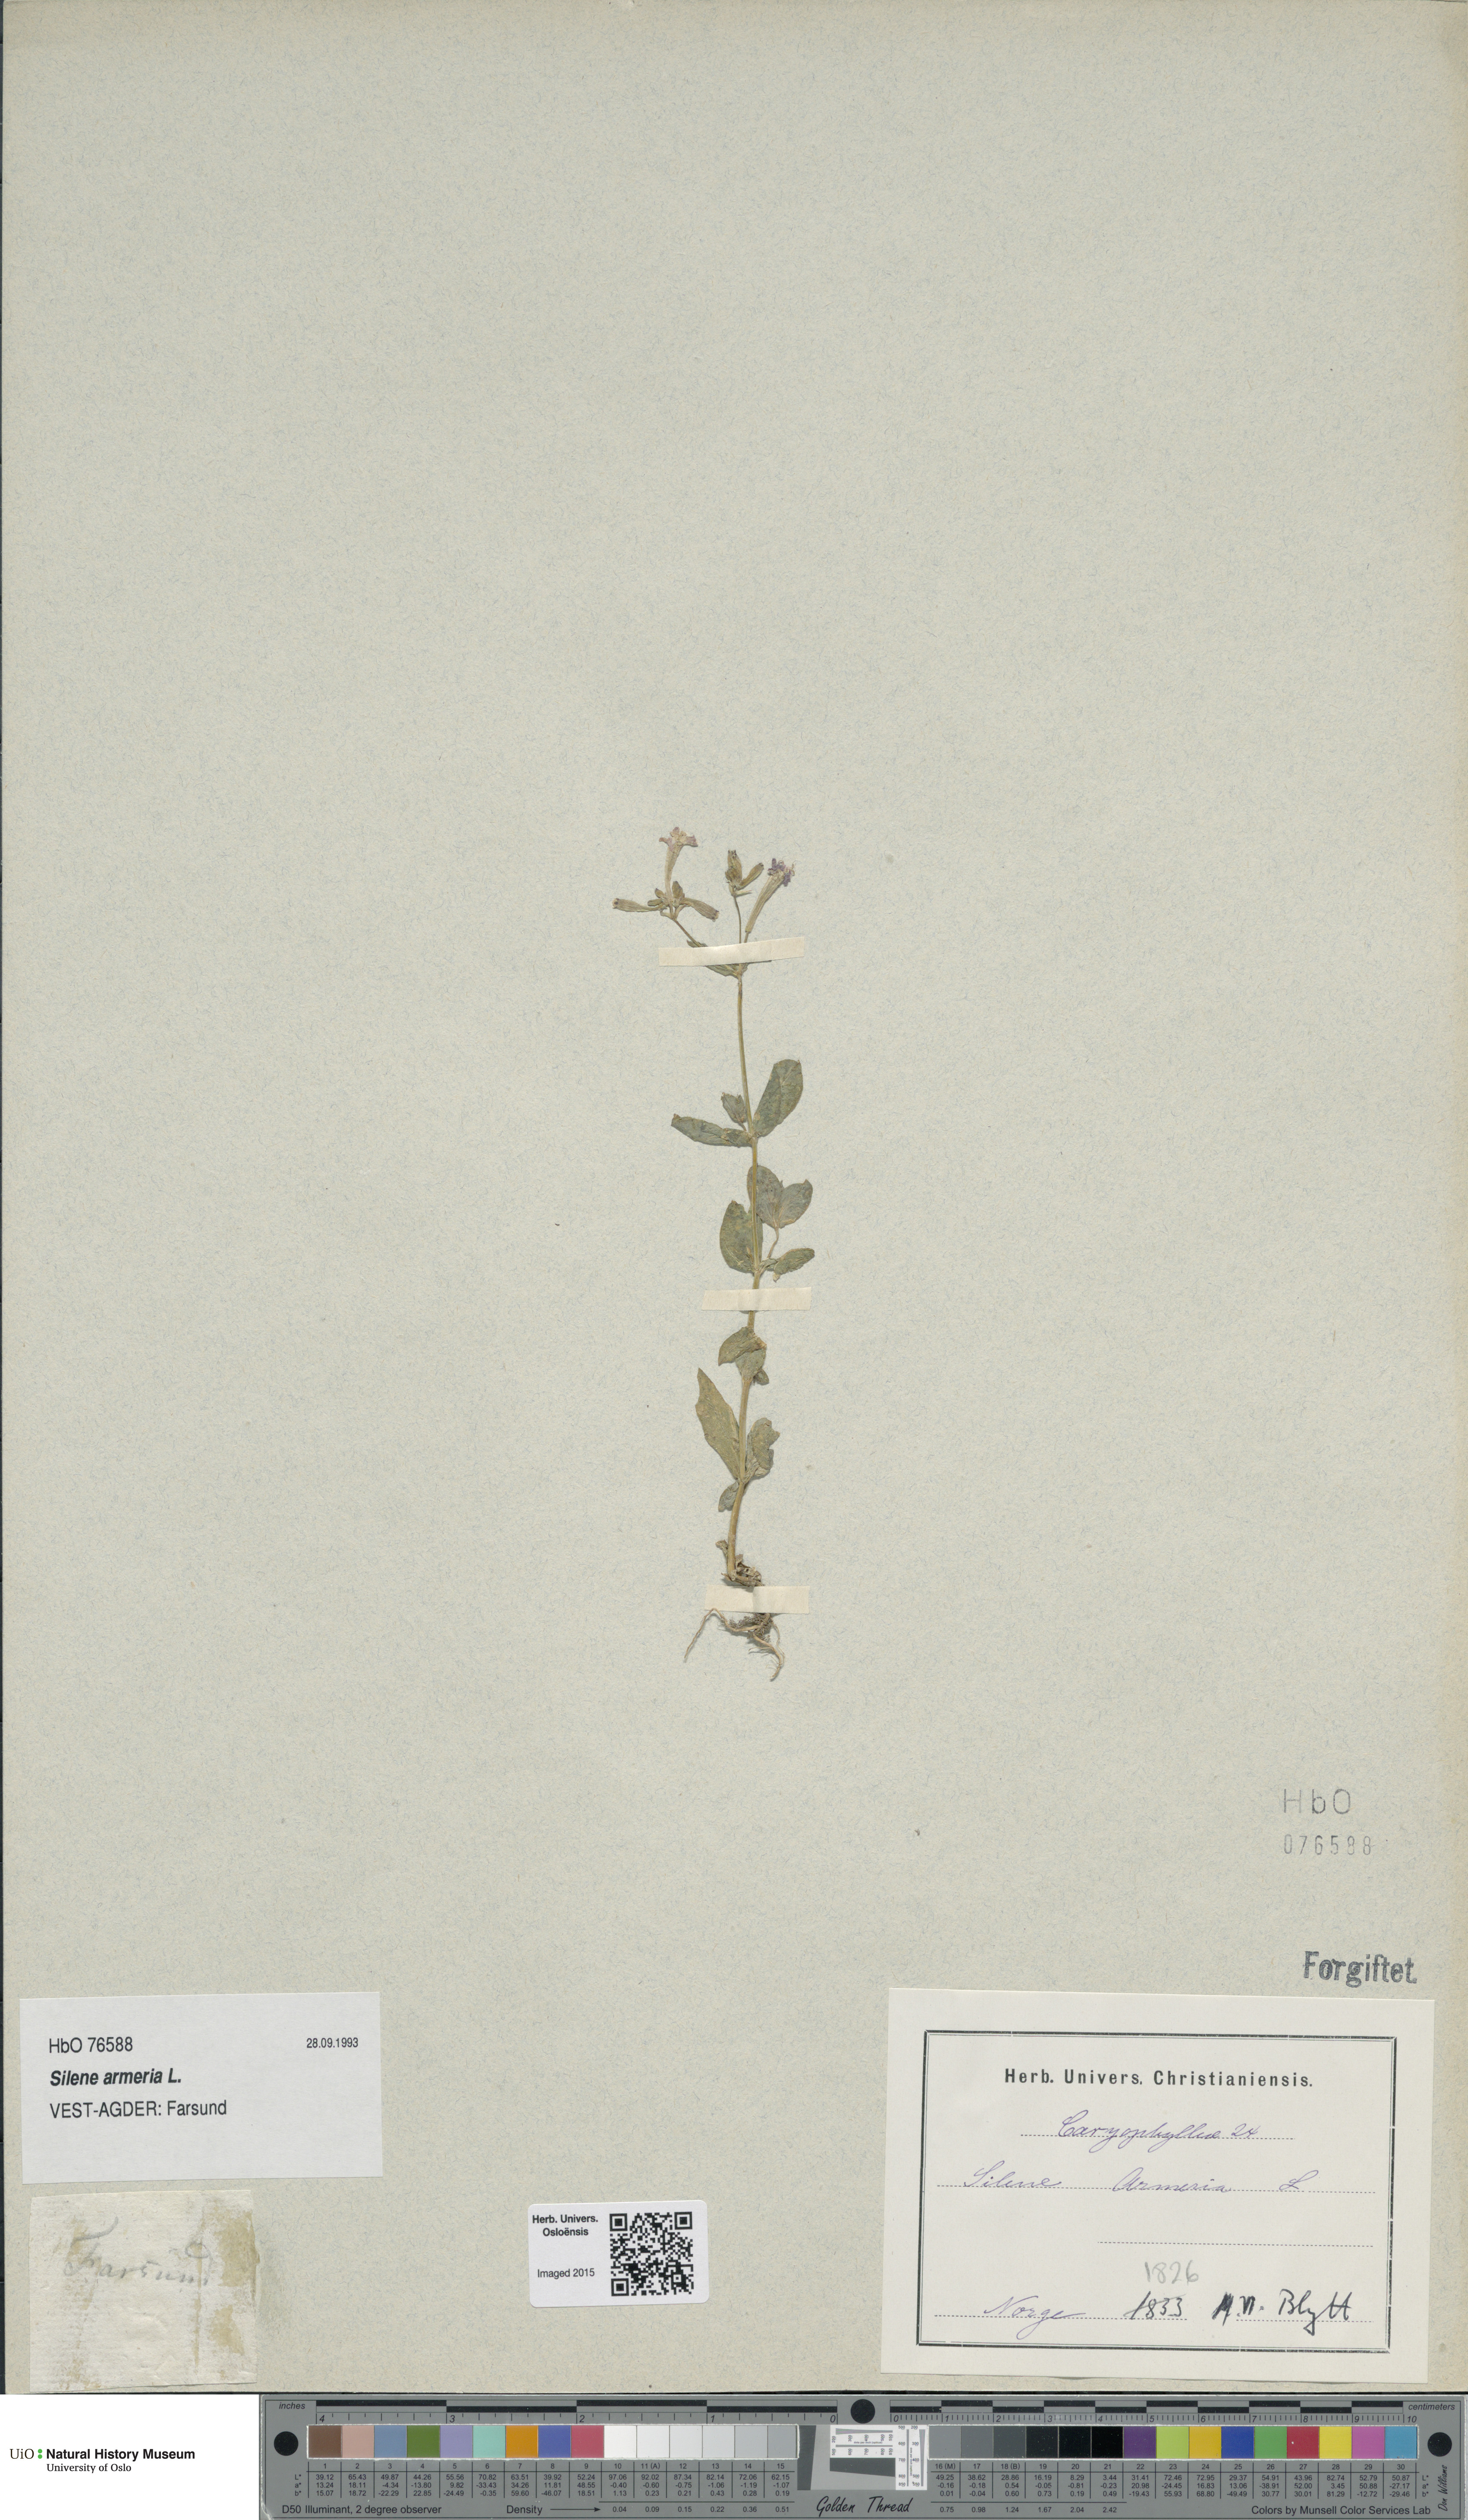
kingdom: Plantae
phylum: Tracheophyta
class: Magnoliopsida
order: Caryophyllales
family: Caryophyllaceae
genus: Atocion
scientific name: Atocion armeria
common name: Sweet william catchfly
